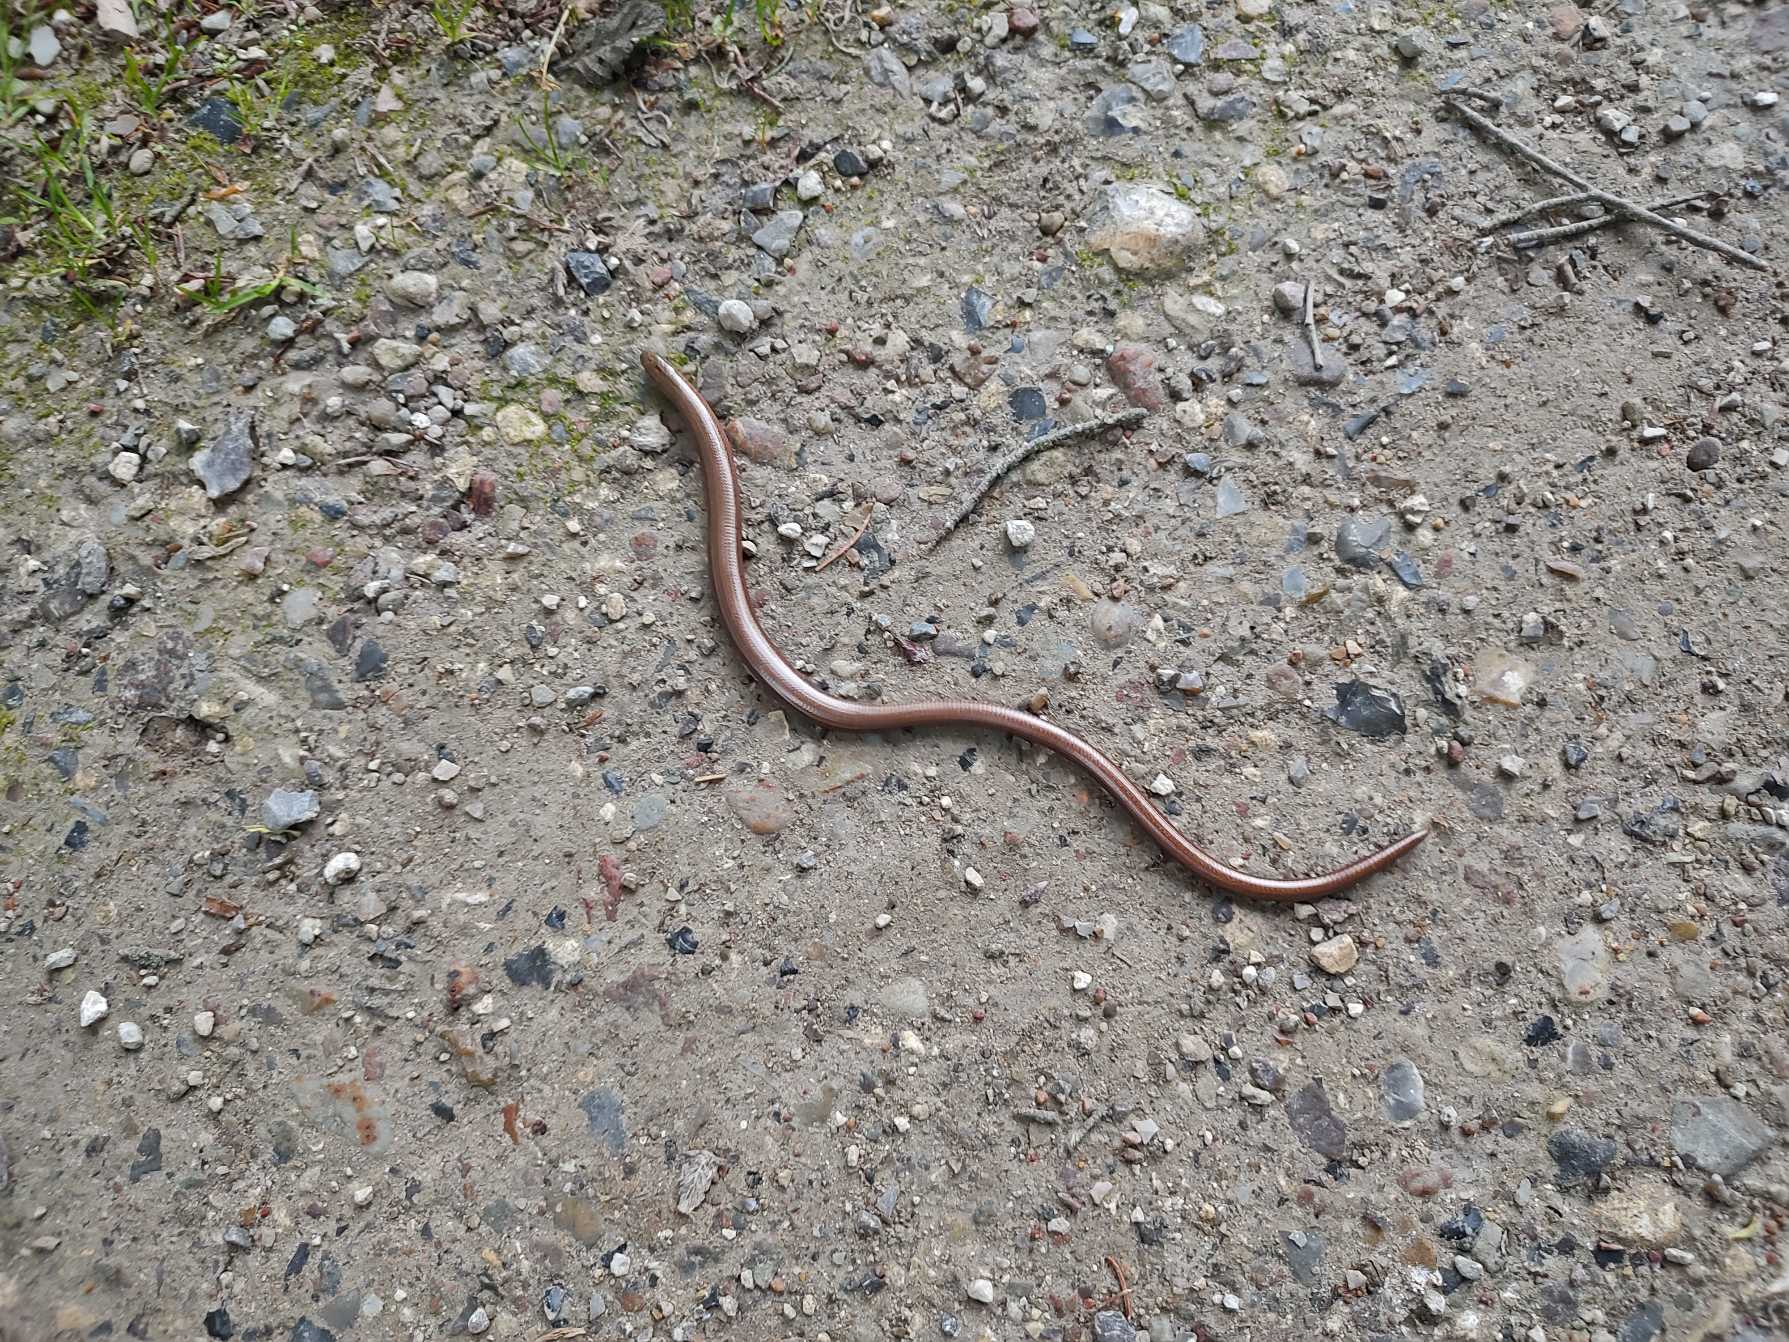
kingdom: Animalia
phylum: Chordata
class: Squamata
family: Anguidae
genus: Anguis
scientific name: Anguis fragilis
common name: Stålorm
